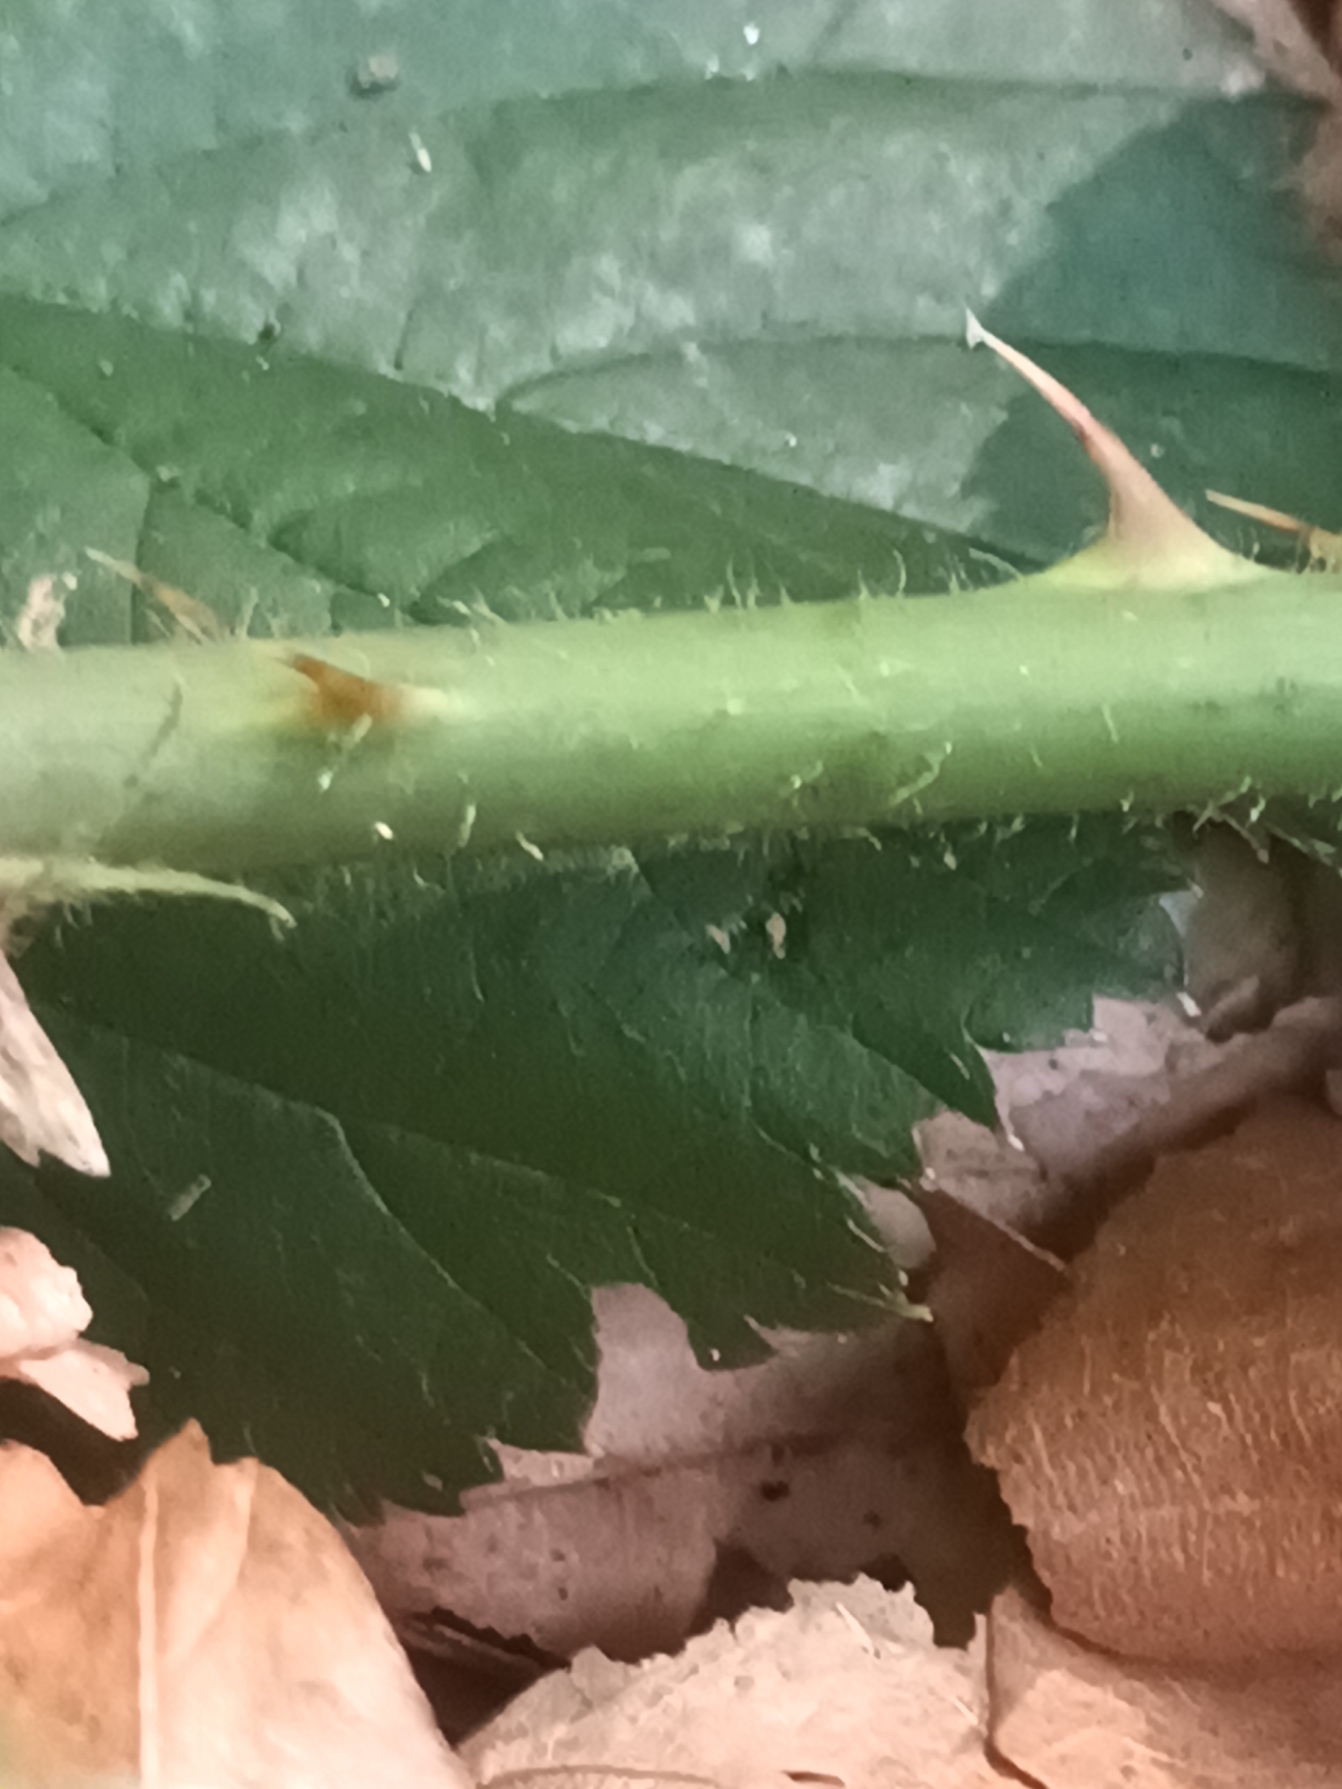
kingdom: Plantae
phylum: Tracheophyta
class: Magnoliopsida
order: Rosales
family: Rosaceae
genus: Rubus
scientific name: Rubus silvaticus
